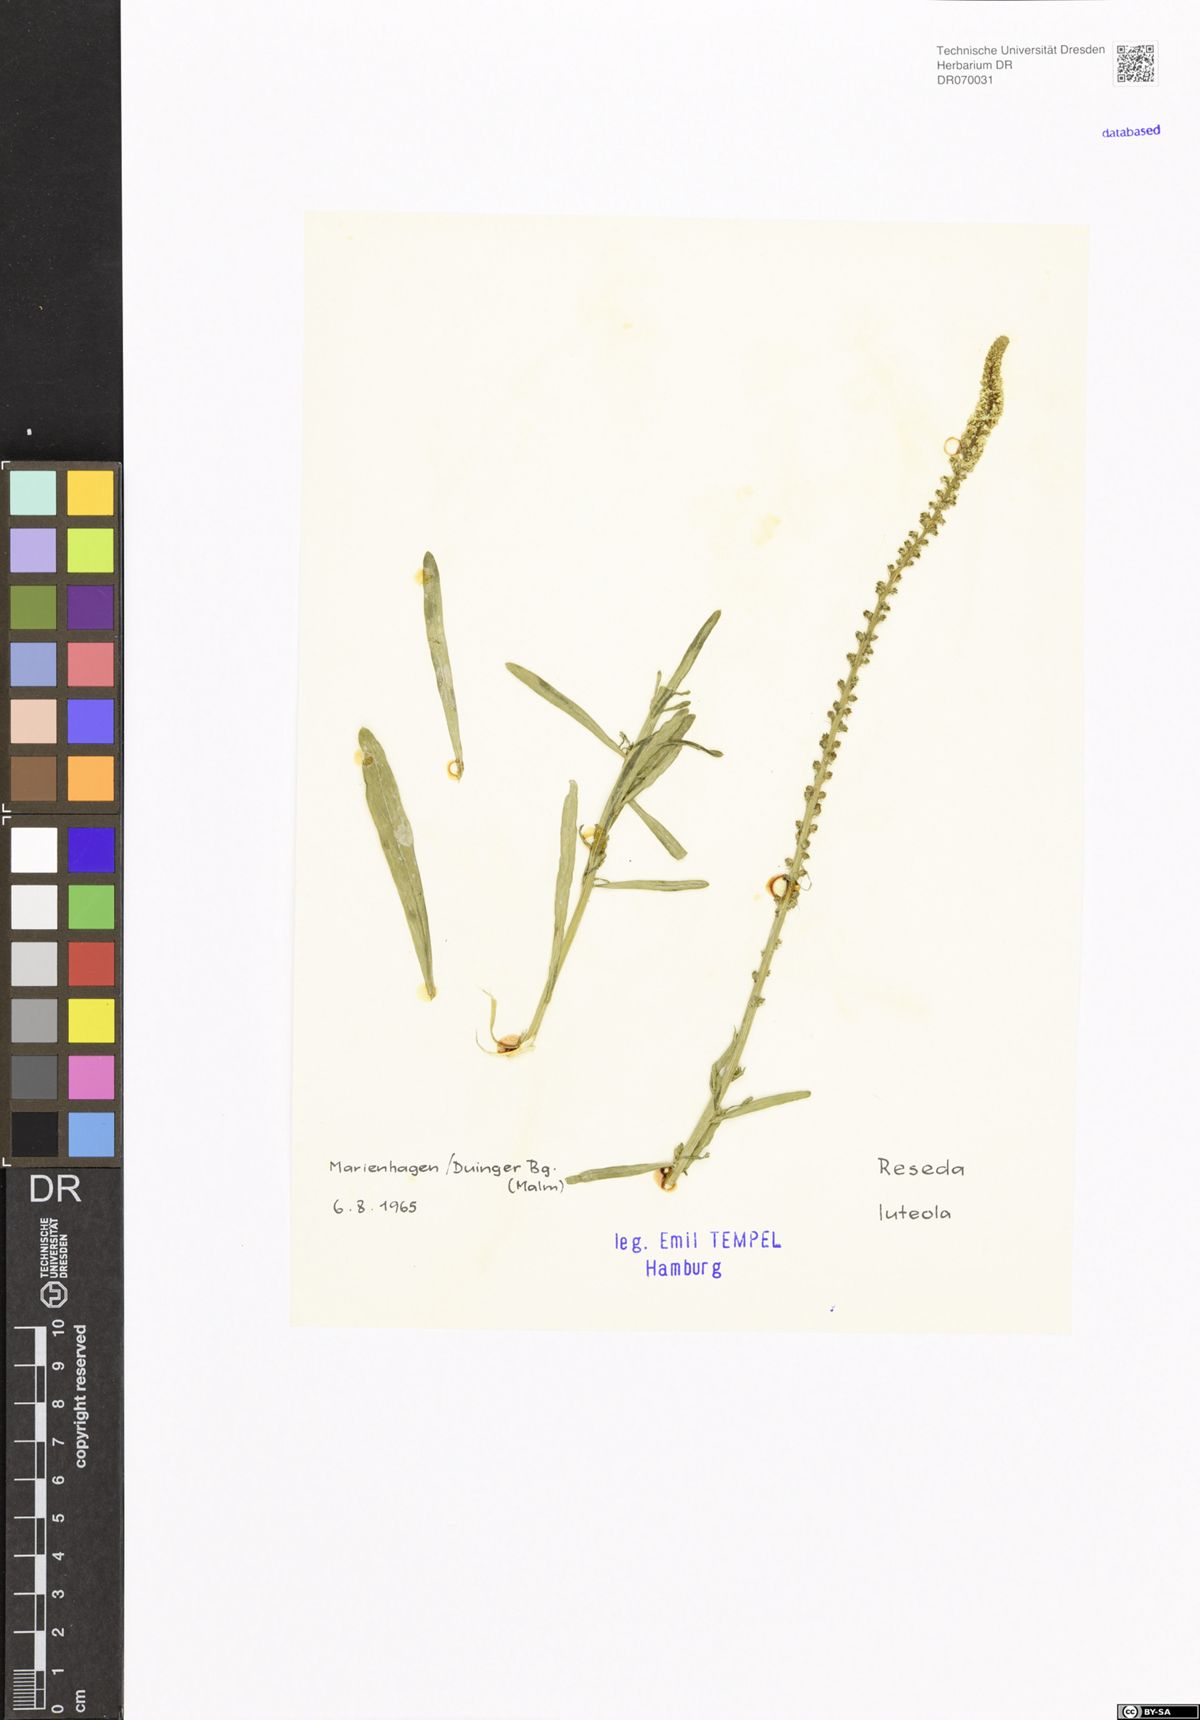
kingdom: Plantae
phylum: Tracheophyta
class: Magnoliopsida
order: Brassicales
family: Resedaceae
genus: Reseda
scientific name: Reseda luteola
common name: Weld
